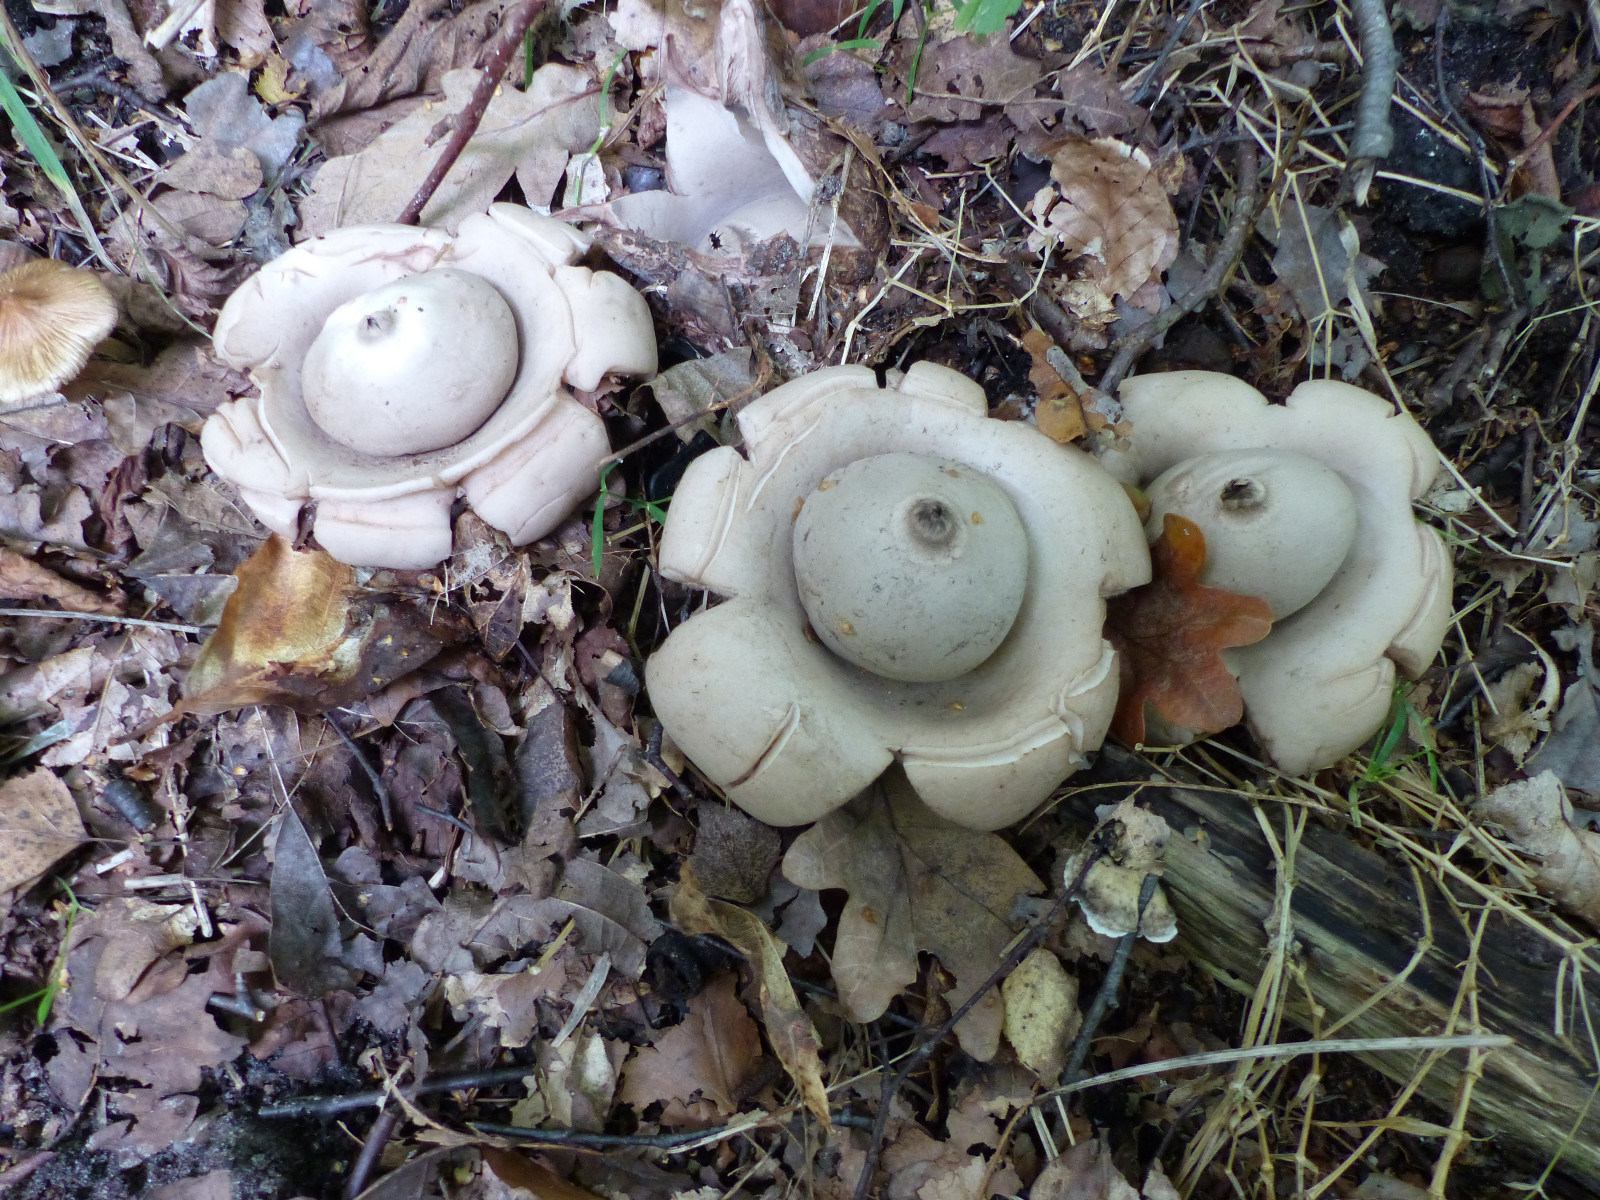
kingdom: Fungi
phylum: Basidiomycota
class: Agaricomycetes
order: Geastrales
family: Geastraceae
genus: Geastrum
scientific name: Geastrum michelianum
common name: kødet stjernebold
